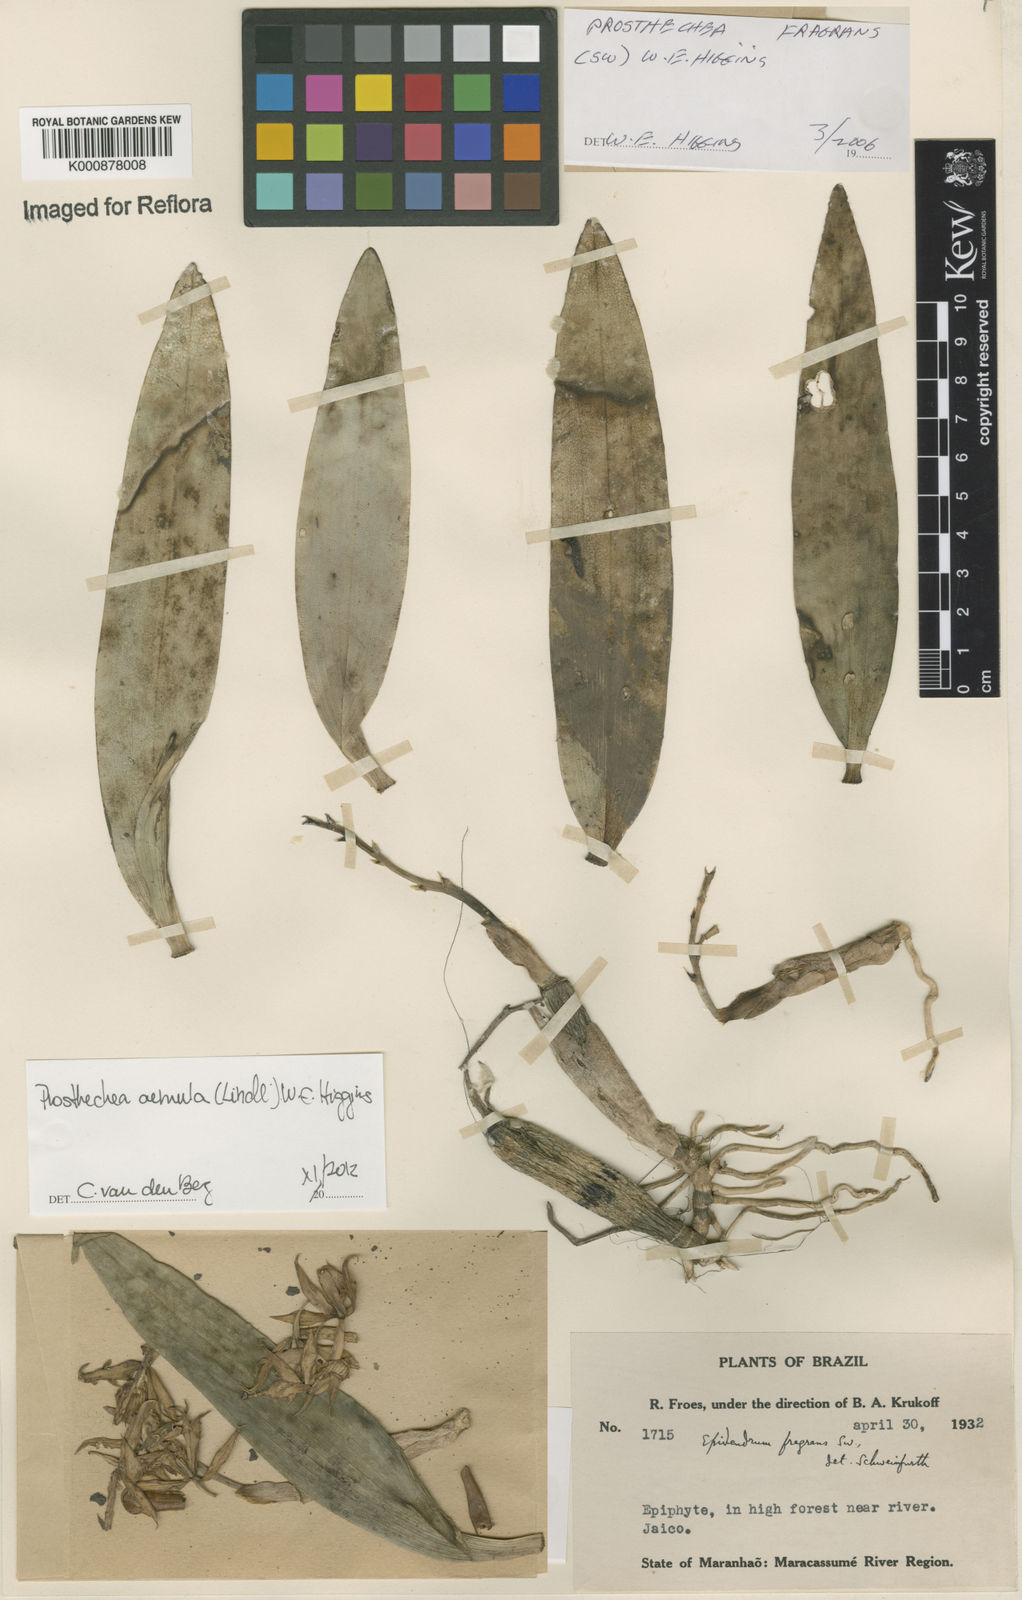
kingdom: Plantae
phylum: Tracheophyta
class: Liliopsida
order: Asparagales
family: Orchidaceae
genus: Prosthechea
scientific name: Prosthechea aemula
